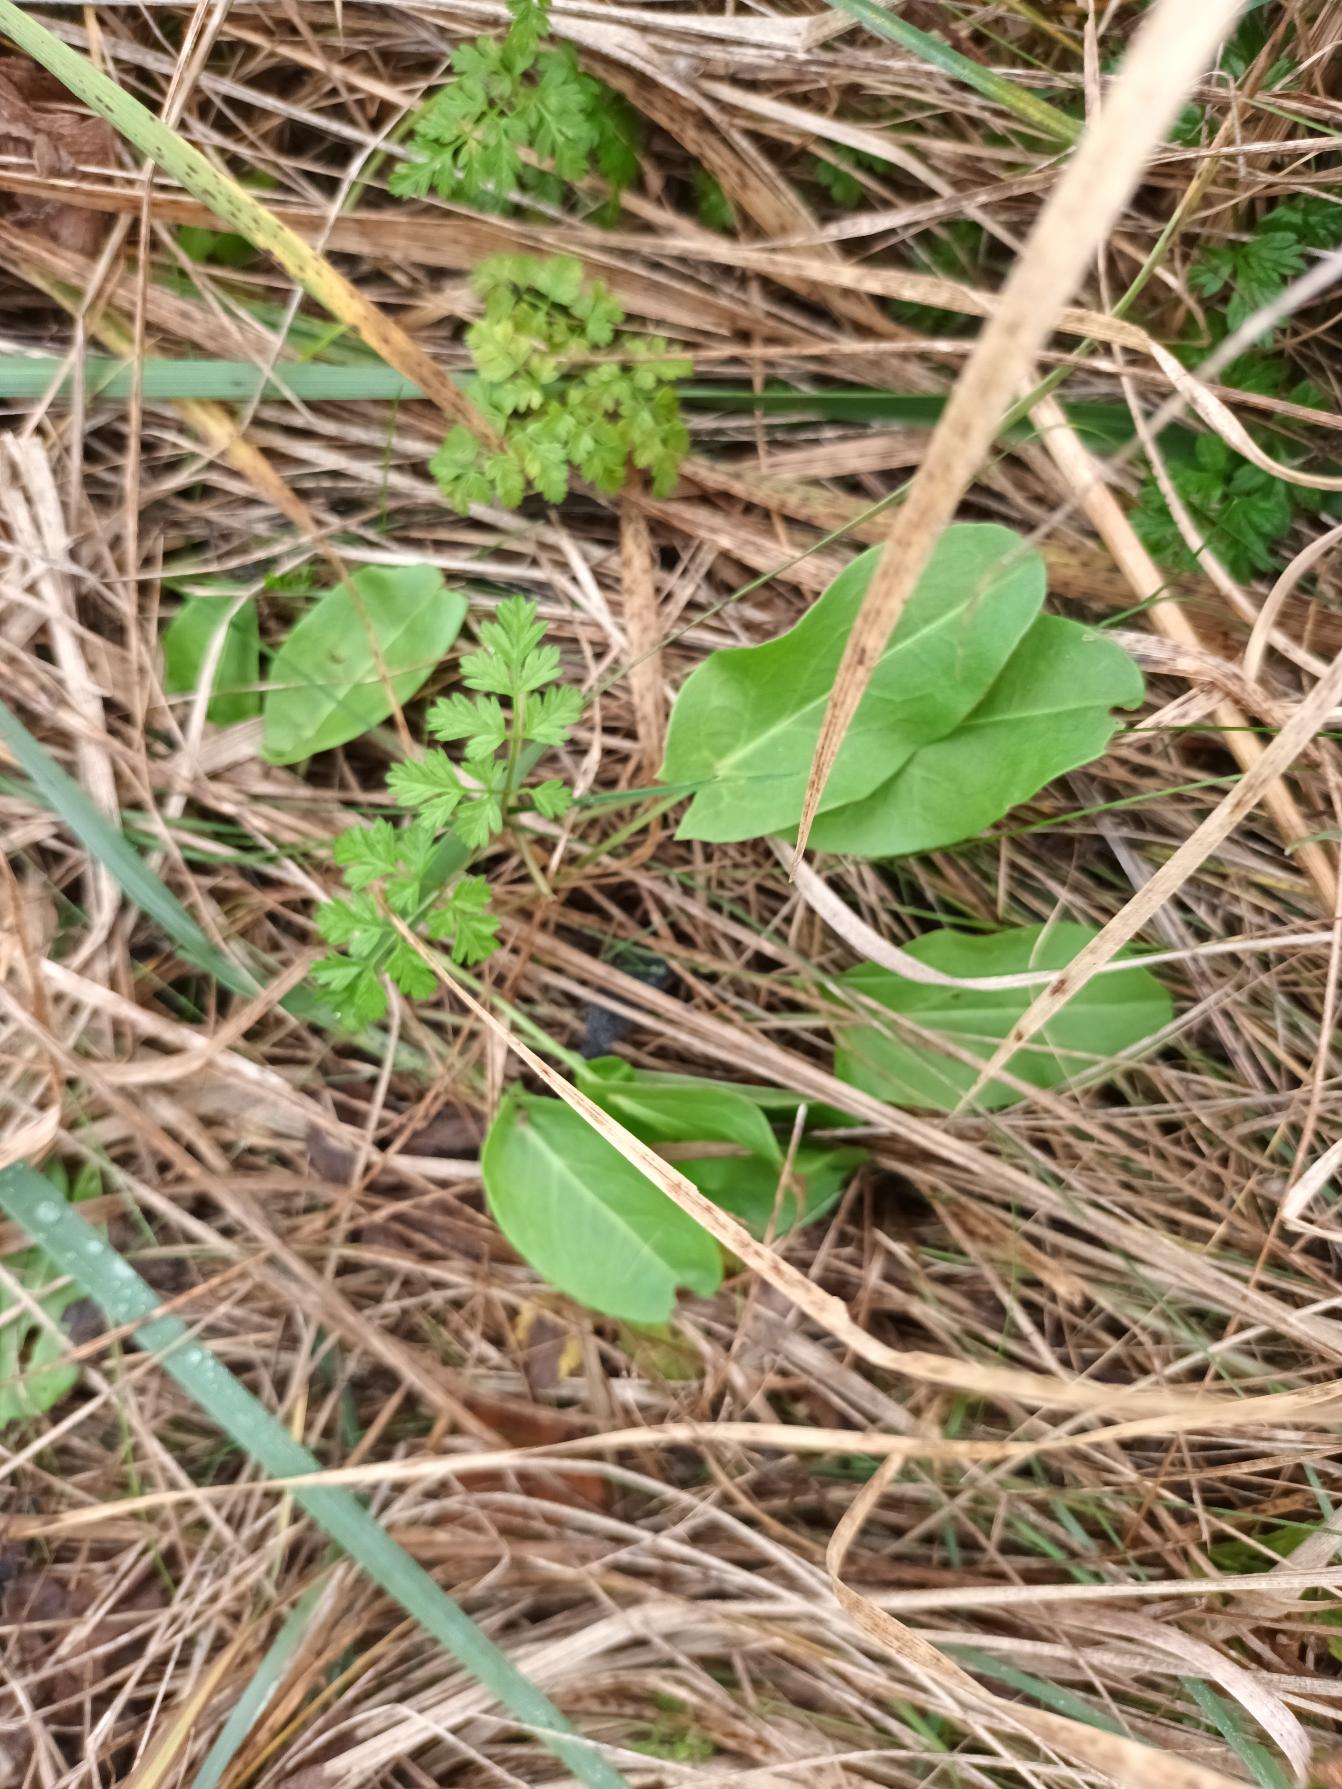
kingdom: Plantae
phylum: Tracheophyta
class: Magnoliopsida
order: Caryophyllales
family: Polygonaceae
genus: Rumex
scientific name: Rumex acetosa
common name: Almindelig syre
